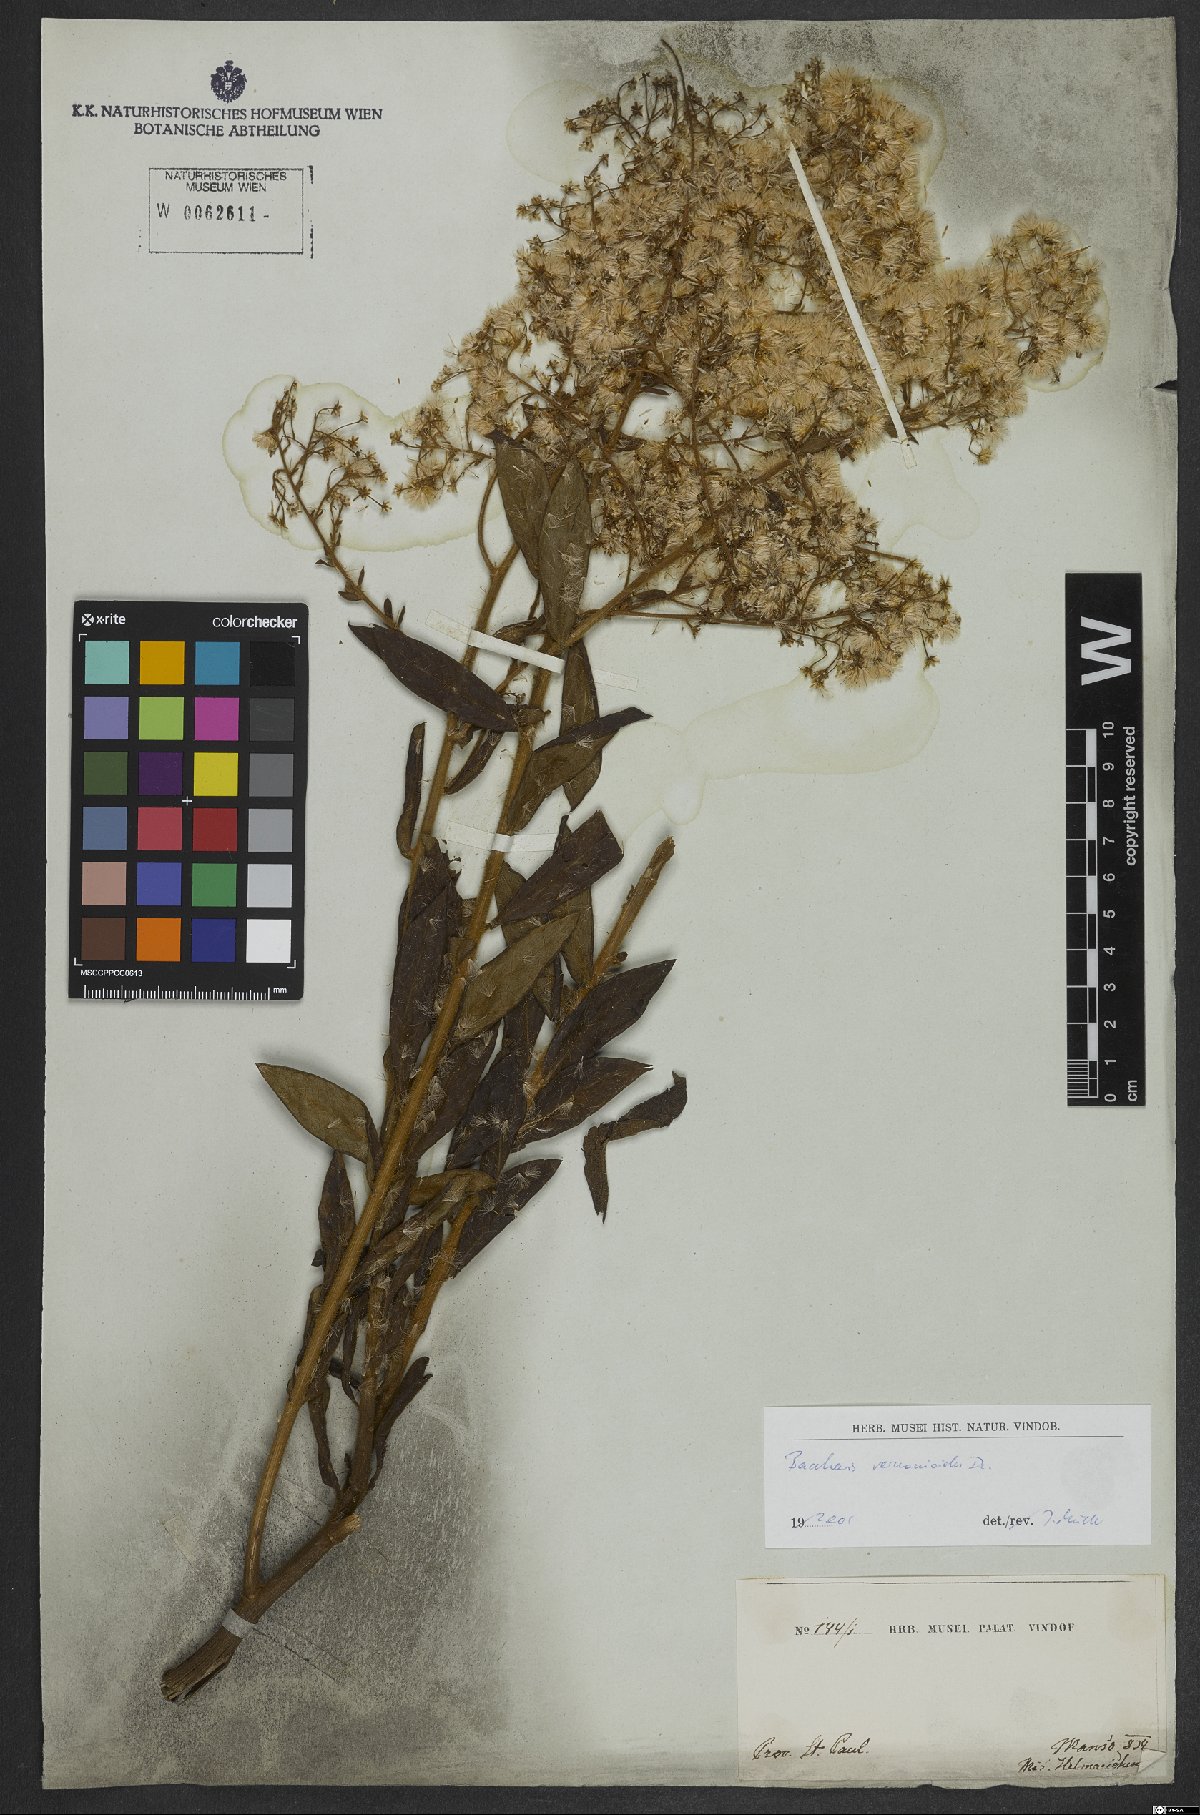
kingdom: Plantae
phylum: Tracheophyta
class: Magnoliopsida
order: Asterales
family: Asteraceae
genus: Baccharis
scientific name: Baccharis rufidula
